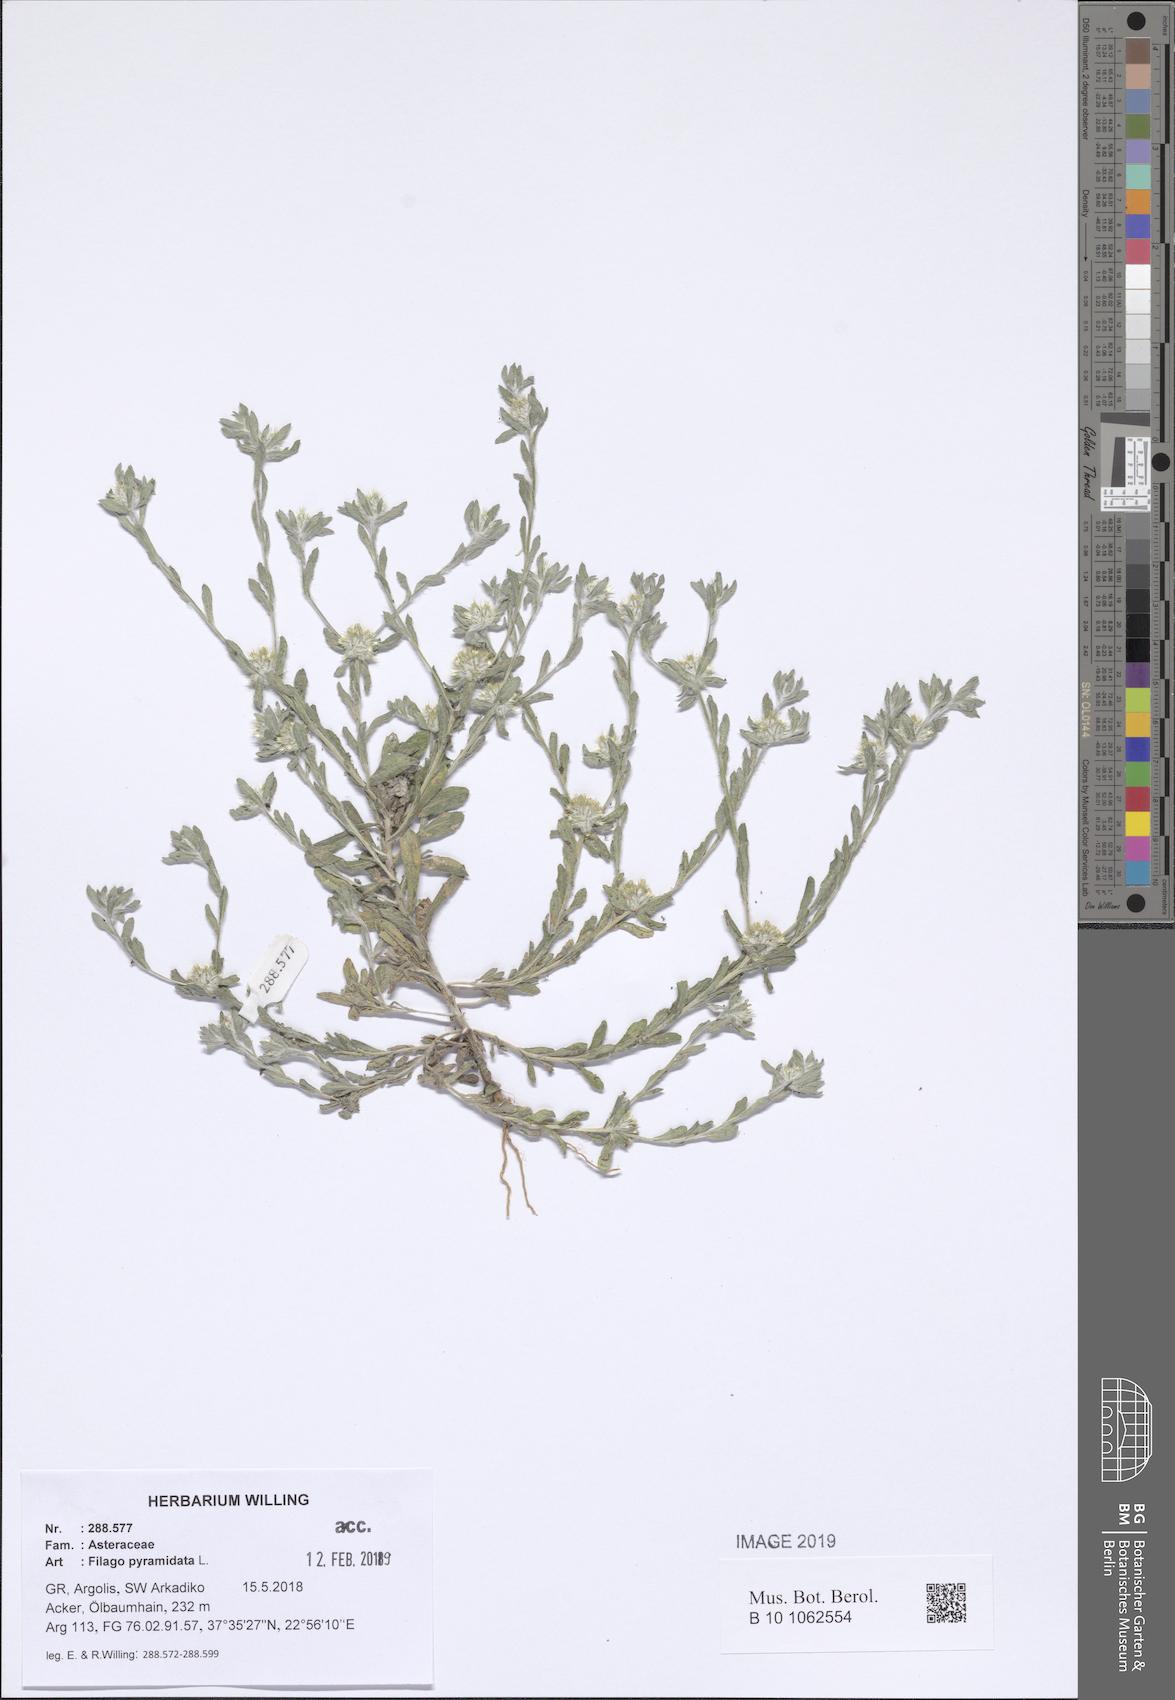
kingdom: Plantae
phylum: Tracheophyta
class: Magnoliopsida
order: Asterales
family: Asteraceae
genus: Filago
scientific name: Filago pyramidata
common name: Broad-leaved cudweed
